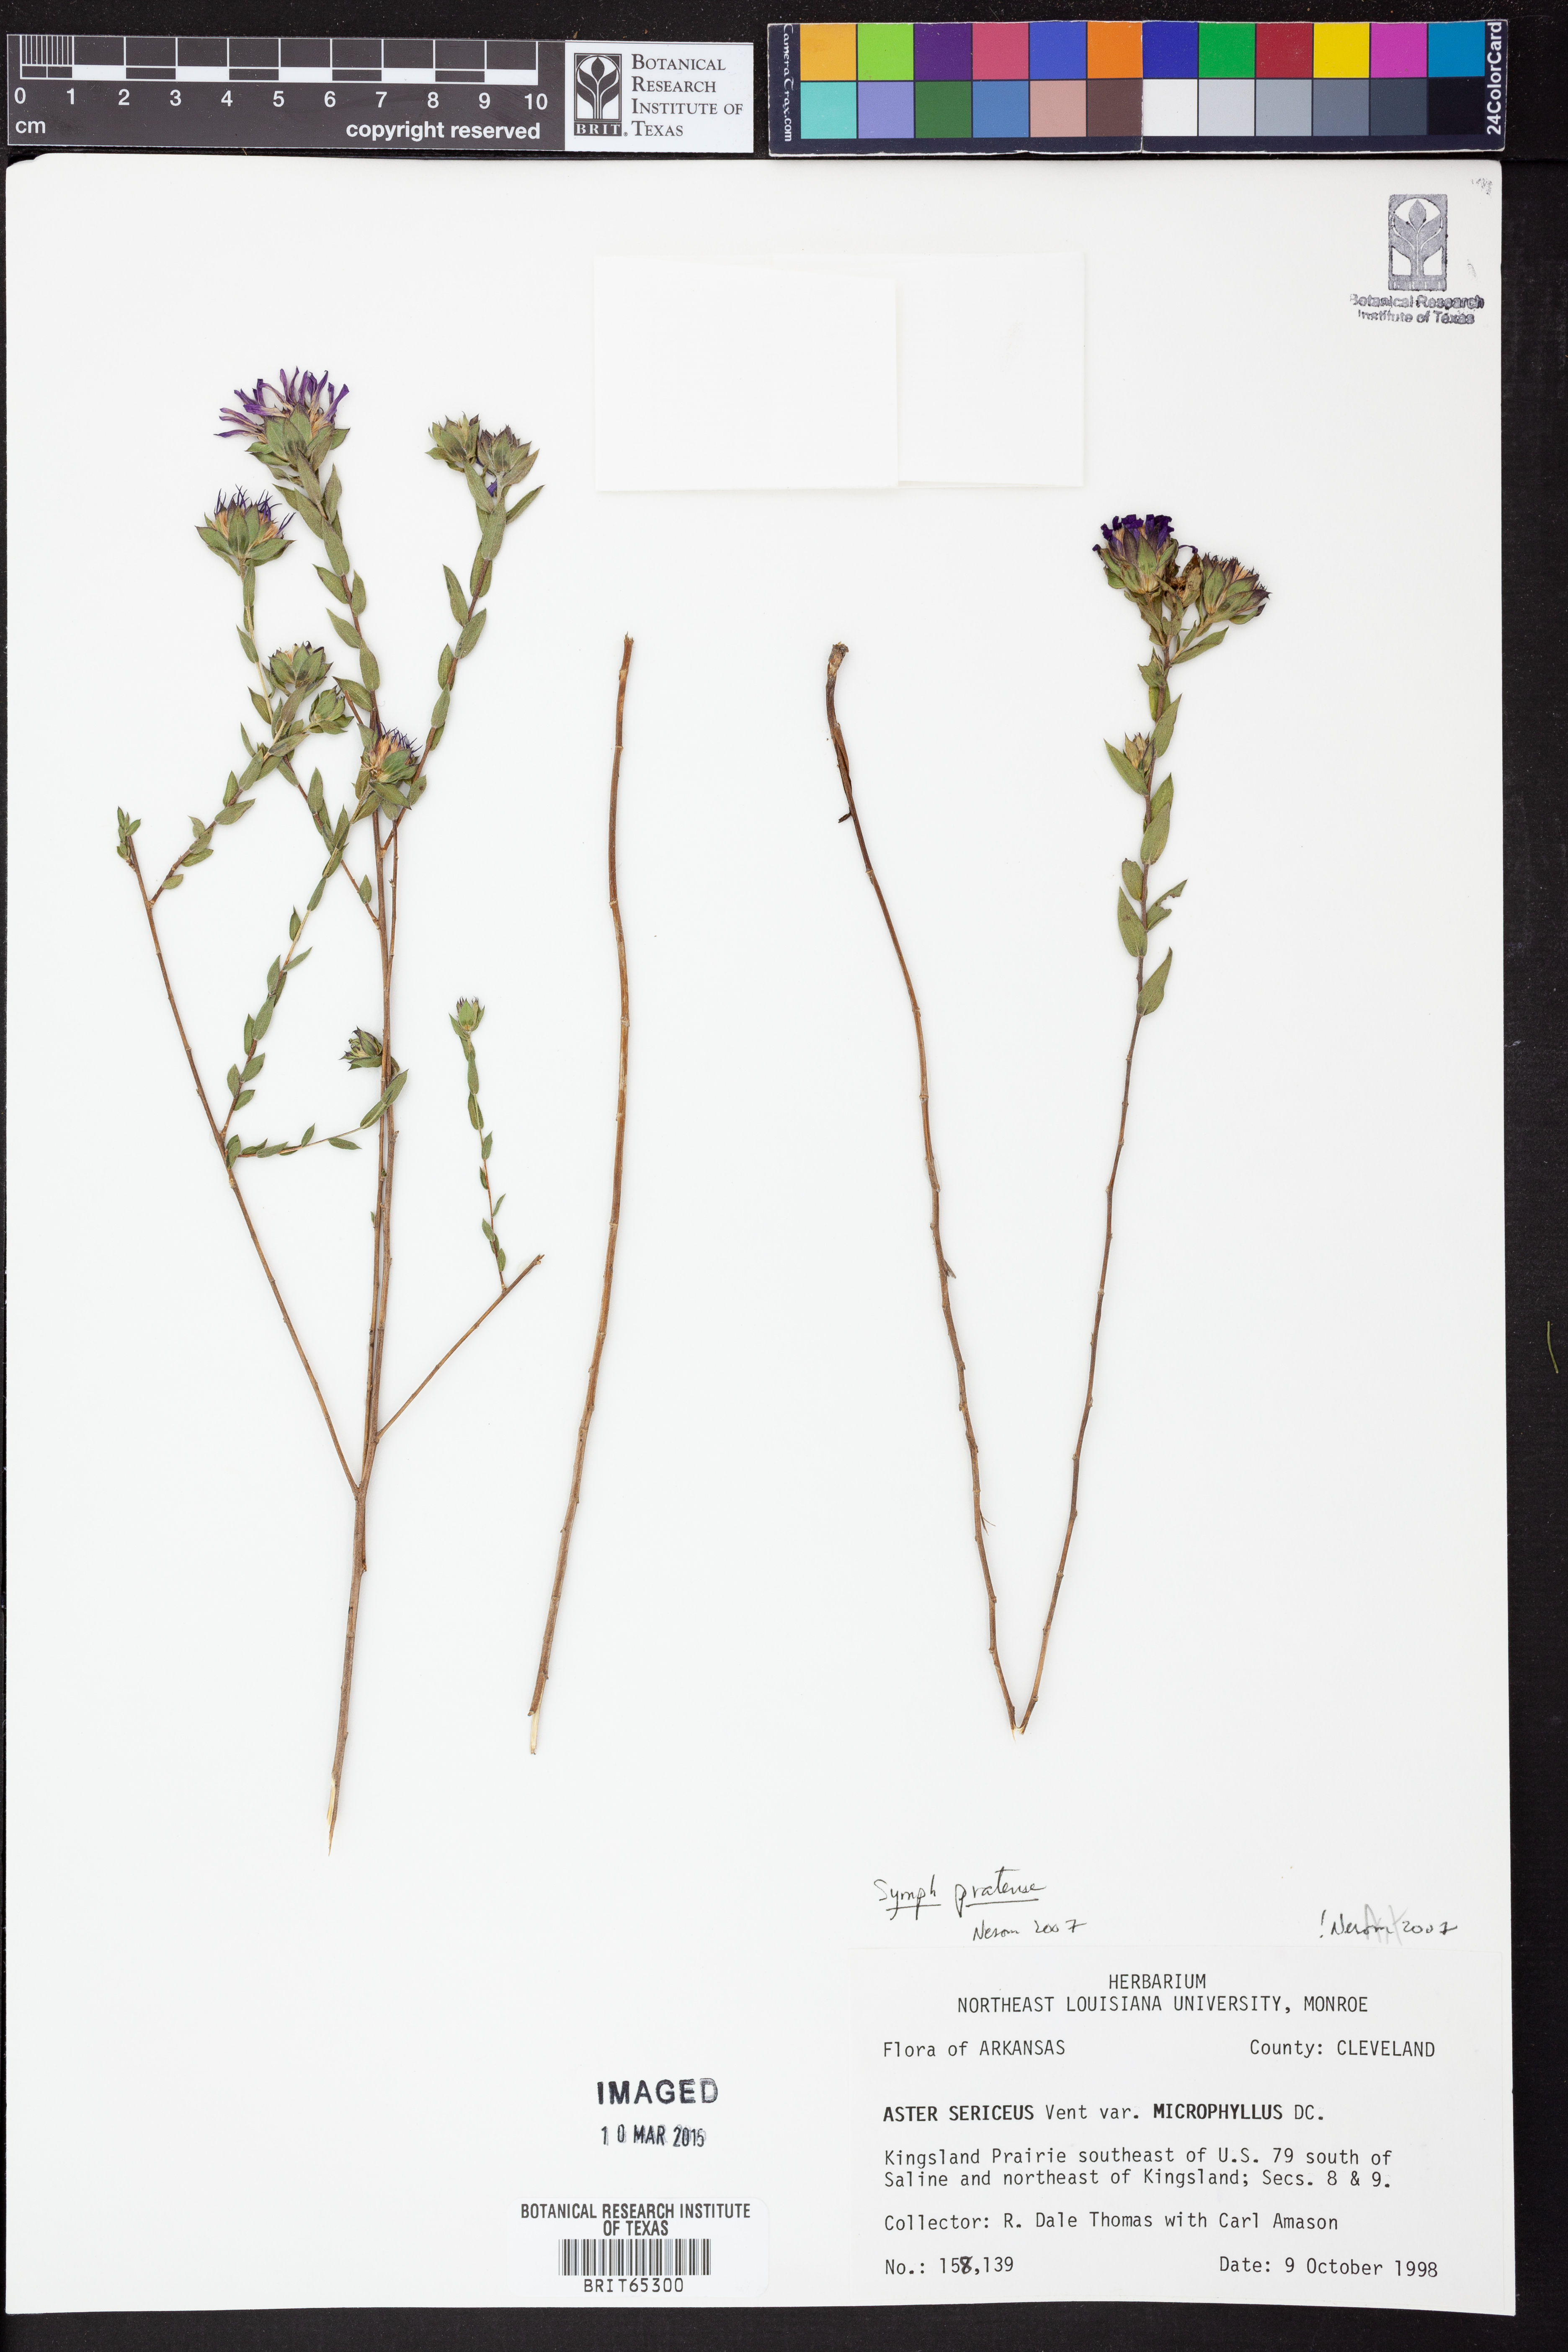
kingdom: Plantae
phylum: Tracheophyta
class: Magnoliopsida
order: Asterales
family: Asteraceae
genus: Symphyotrichum
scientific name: Symphyotrichum pratense
